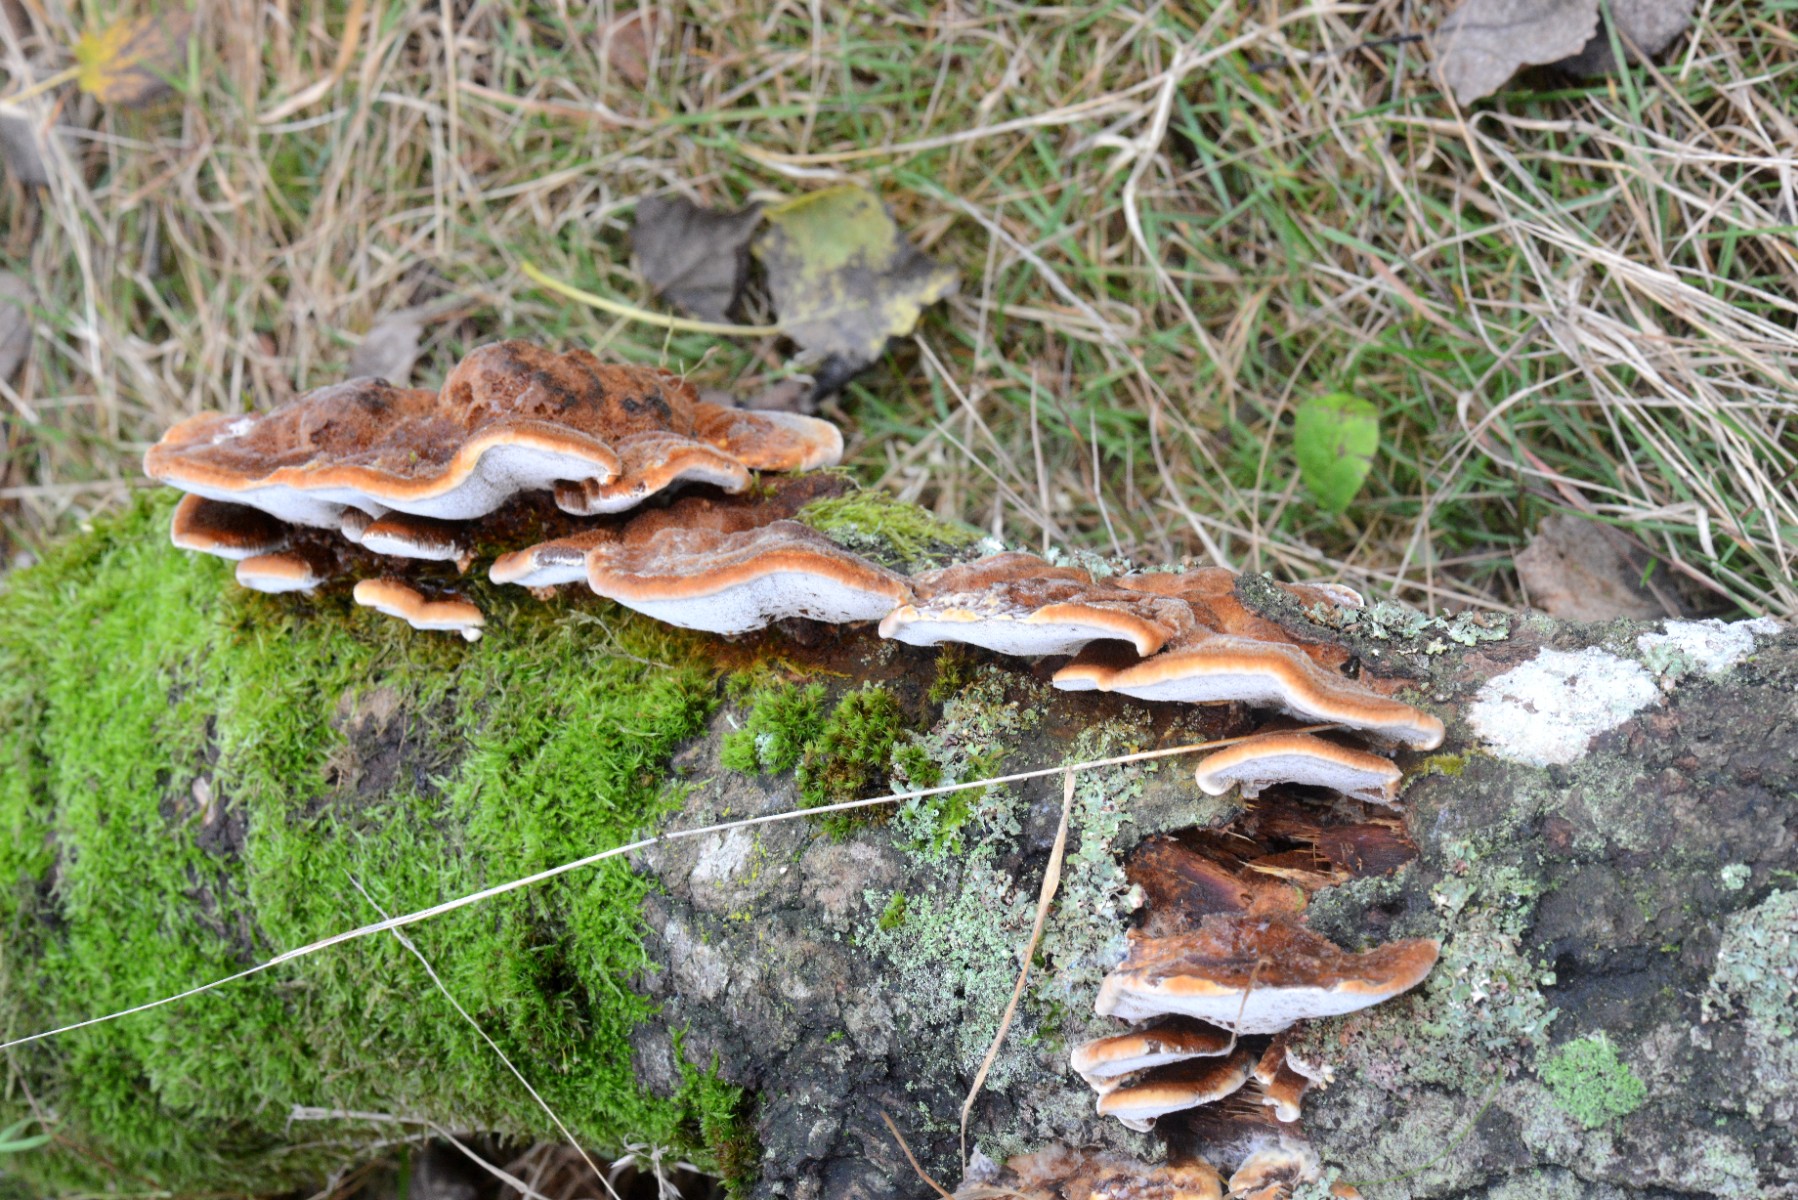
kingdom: Fungi
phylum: Basidiomycota
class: Agaricomycetes
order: Hymenochaetales
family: Hymenochaetaceae
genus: Inocutis
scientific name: Inocutis rheades
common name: ræve-spejlporesvamp
